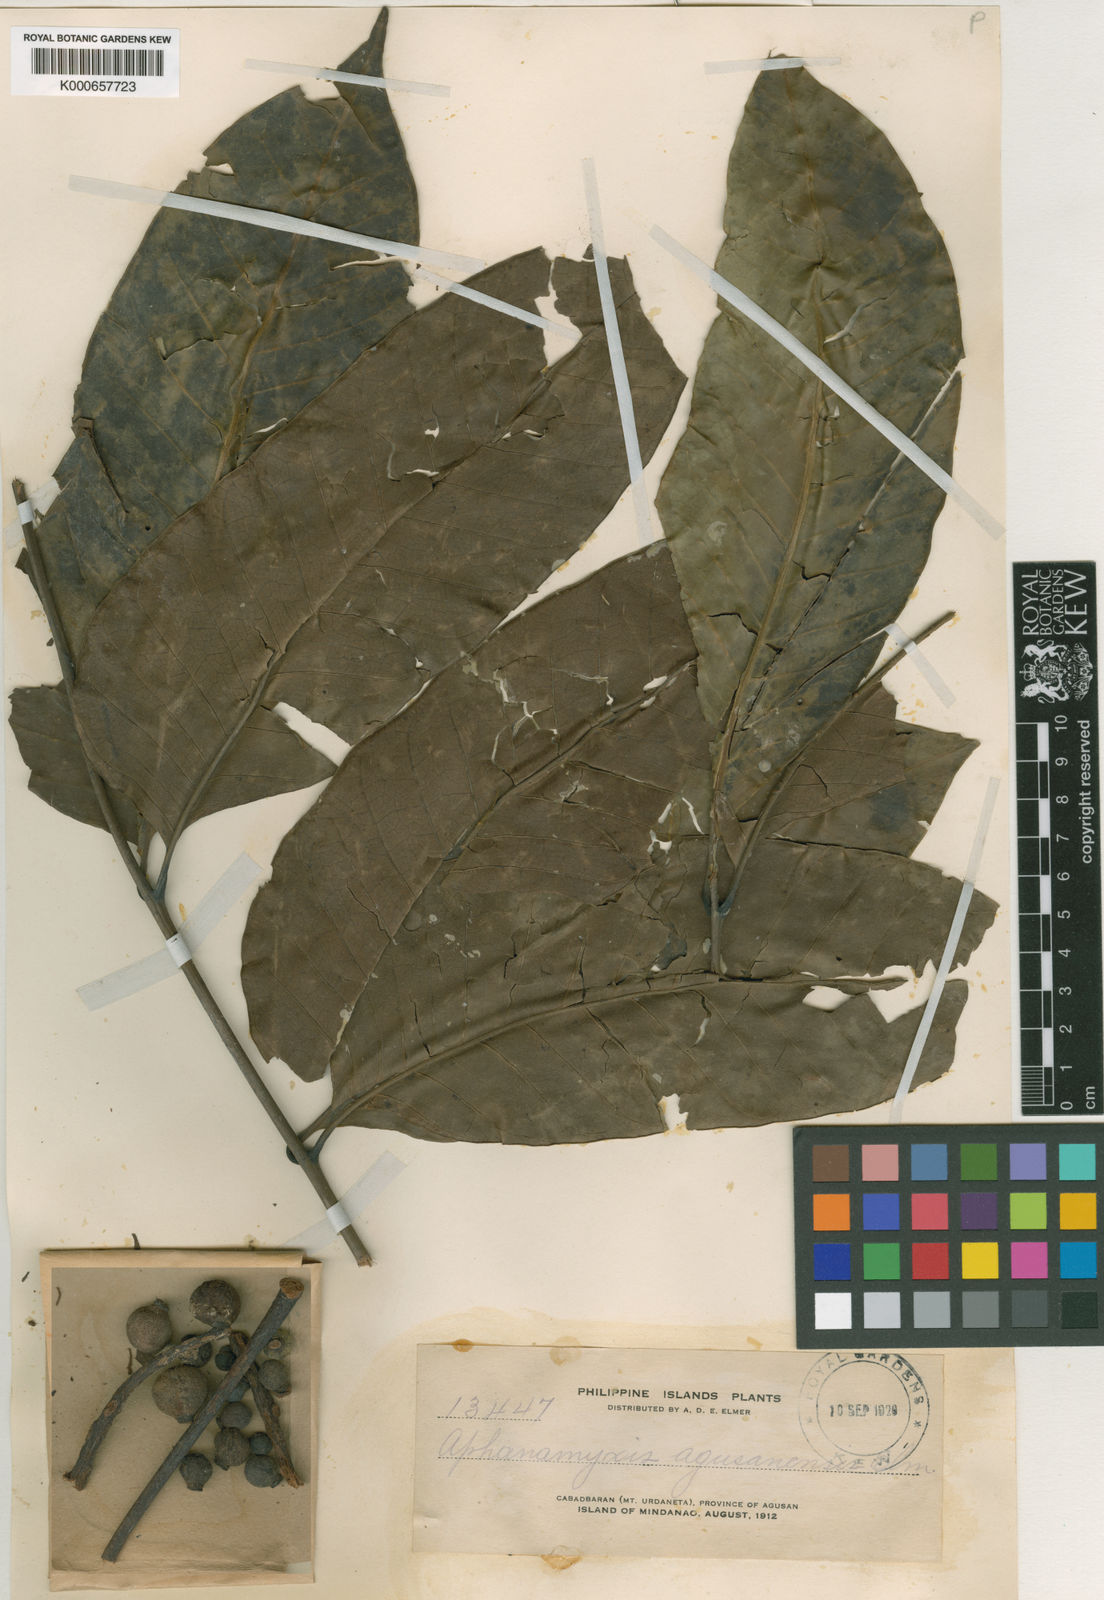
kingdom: Plantae
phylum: Tracheophyta
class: Magnoliopsida
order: Sapindales
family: Meliaceae
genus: Aphanamixis
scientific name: Aphanamixis polystachya
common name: Pithraj tree
